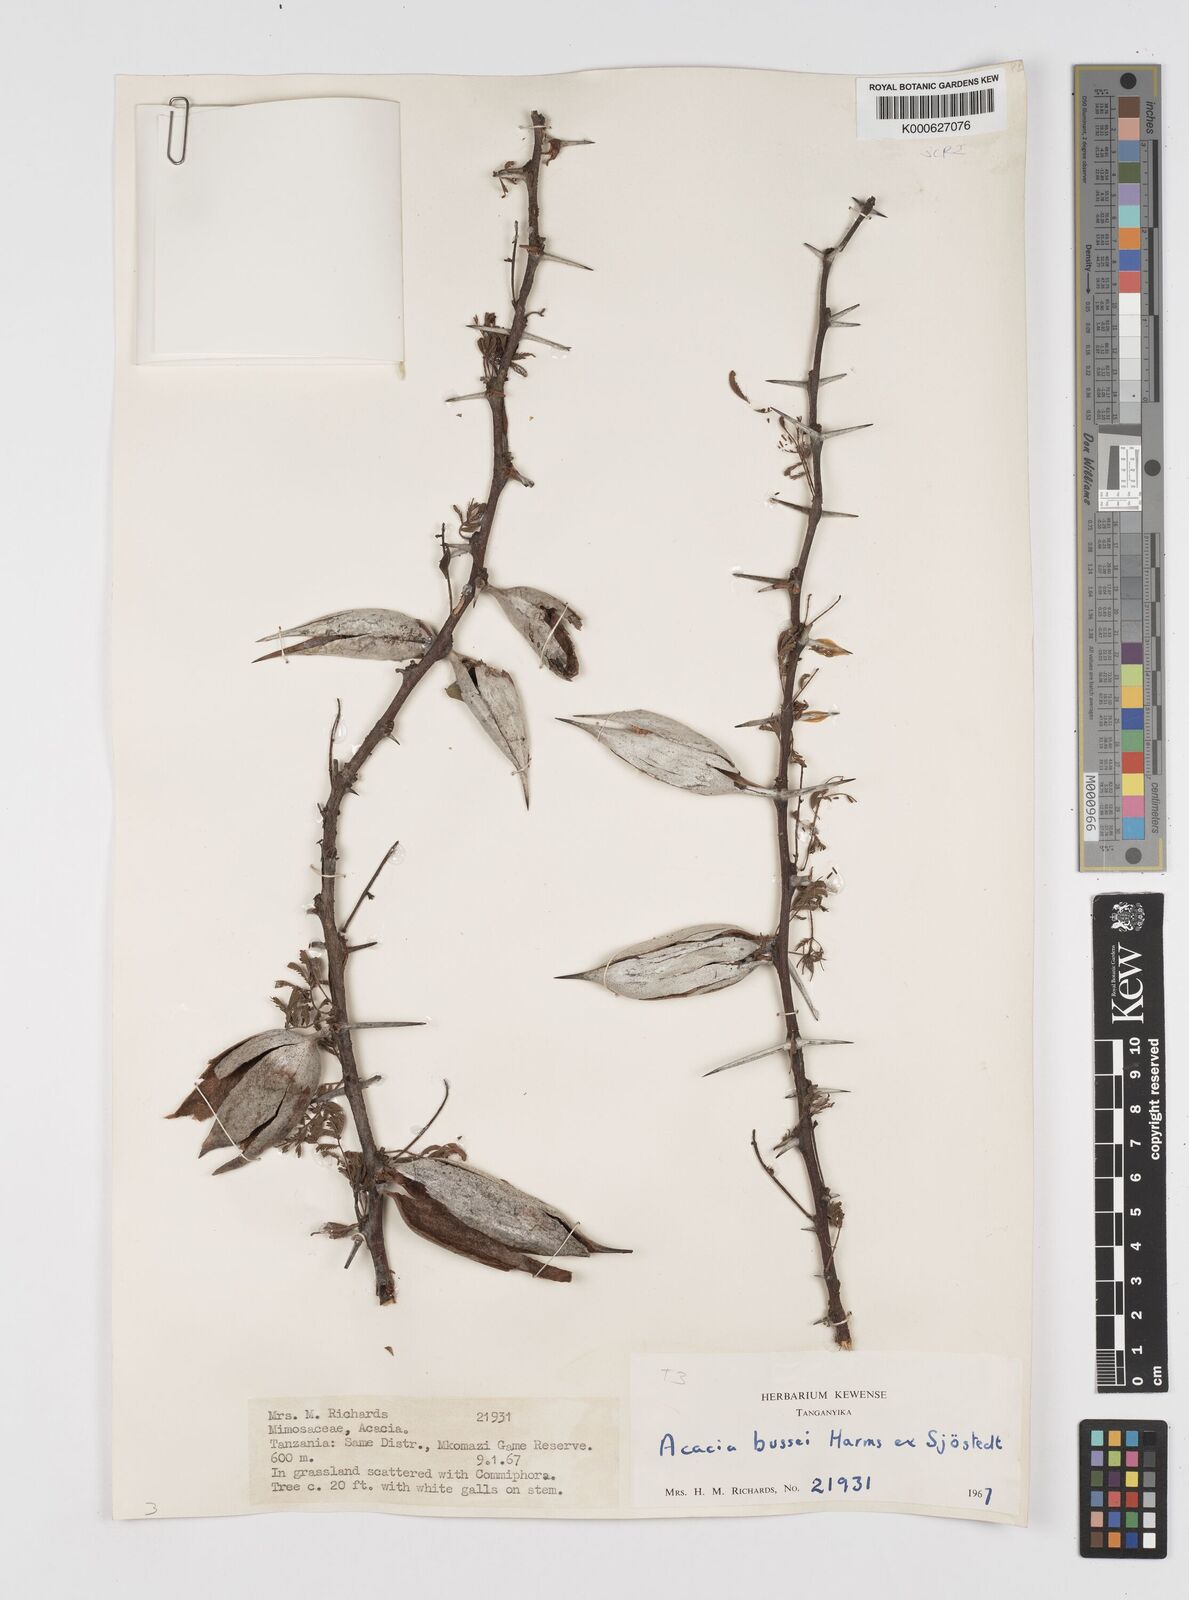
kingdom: Plantae
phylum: Tracheophyta
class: Magnoliopsida
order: Fabales
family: Fabaceae
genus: Vachellia
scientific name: Vachellia bussei
